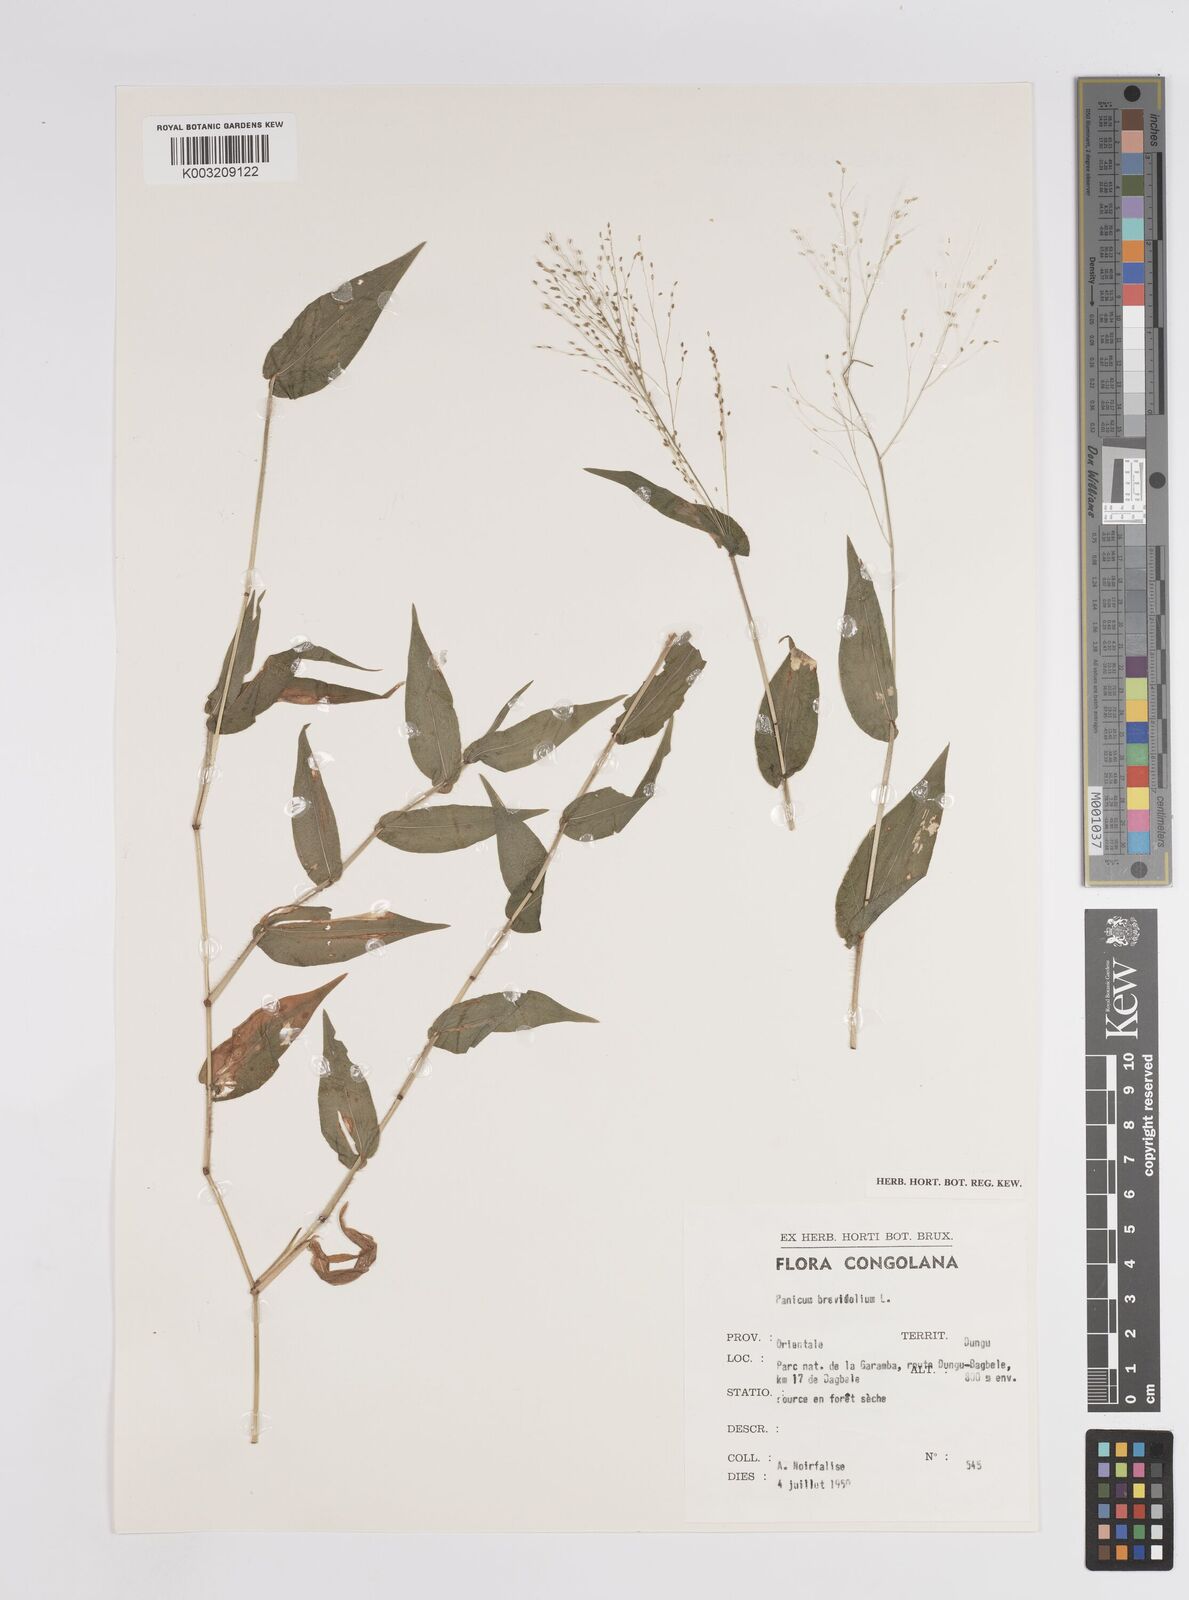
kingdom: Plantae
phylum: Tracheophyta
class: Liliopsida
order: Poales
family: Poaceae
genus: Panicum
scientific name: Panicum brevifolium
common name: Shortleaf panic grass
